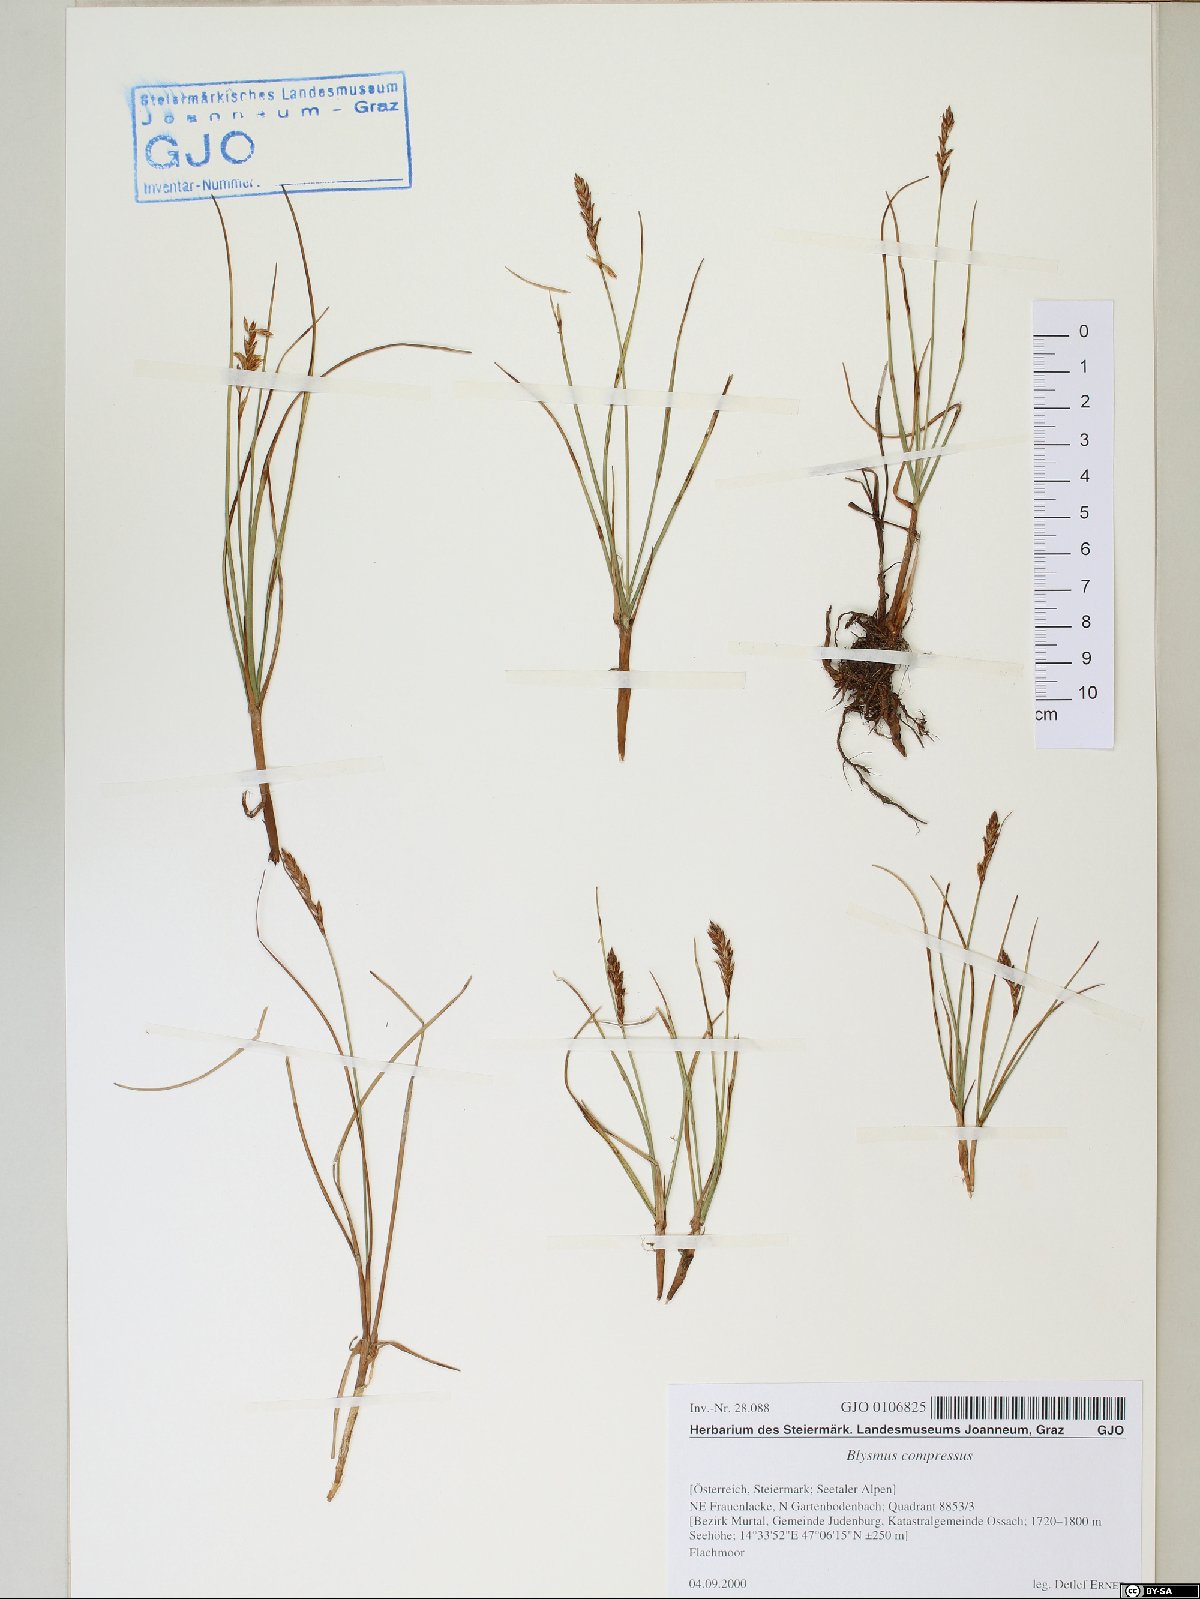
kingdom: Plantae
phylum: Tracheophyta
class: Liliopsida
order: Poales
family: Cyperaceae
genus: Blysmus
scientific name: Blysmus compressus
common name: Flat-sedge
